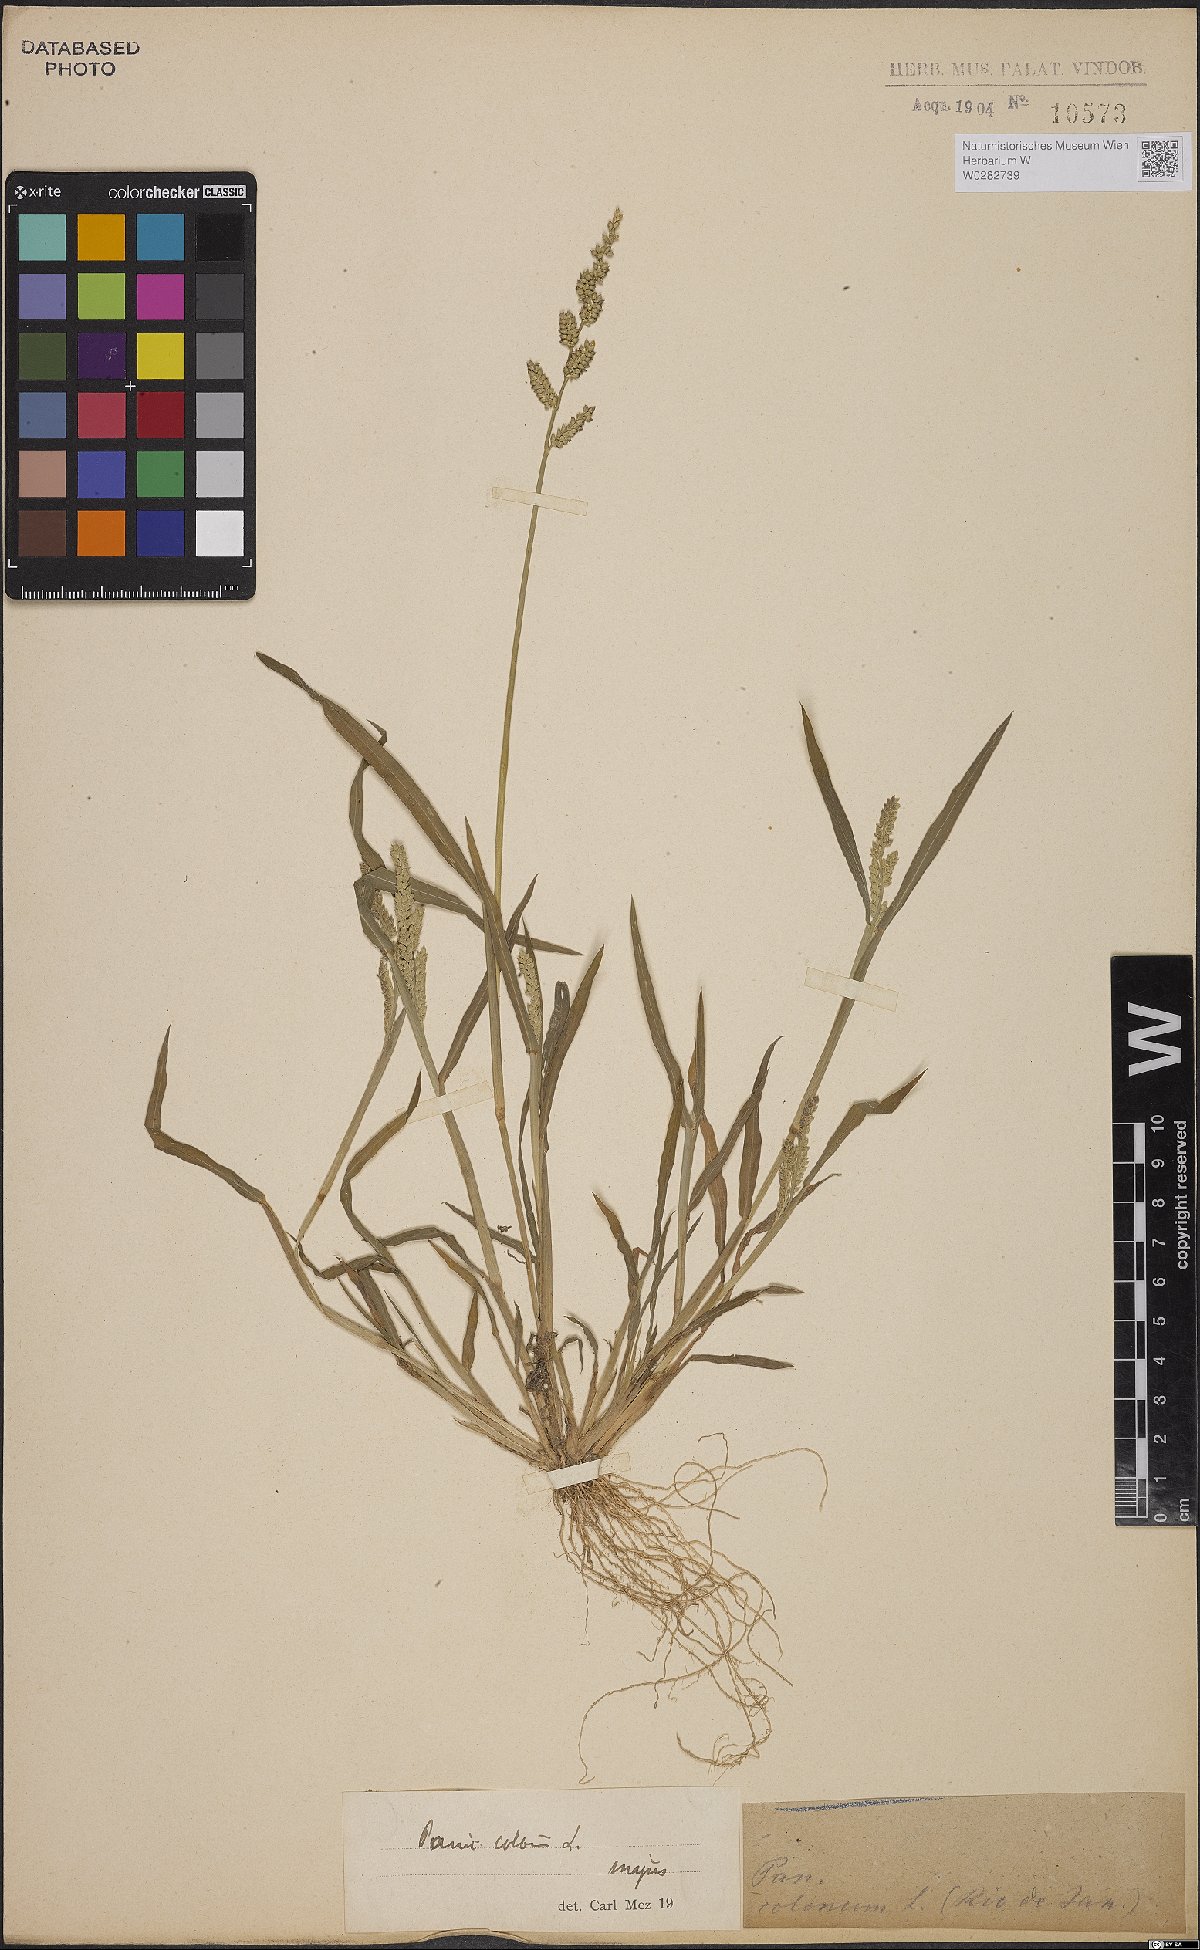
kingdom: Plantae
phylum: Tracheophyta
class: Liliopsida
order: Poales
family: Poaceae
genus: Echinochloa
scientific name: Echinochloa colonum
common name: Jungle rice
